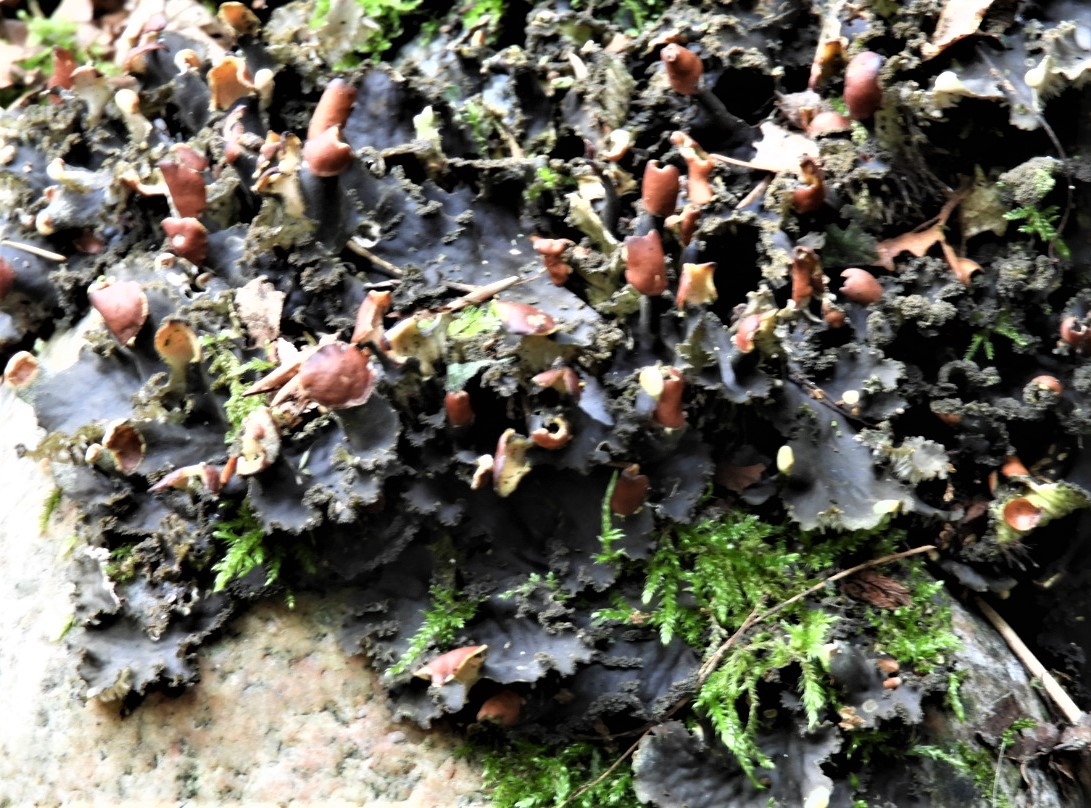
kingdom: Fungi
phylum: Ascomycota
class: Lecanoromycetes
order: Peltigerales
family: Peltigeraceae
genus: Peltigera
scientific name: Peltigera praetextata
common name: kruset skjoldlav
